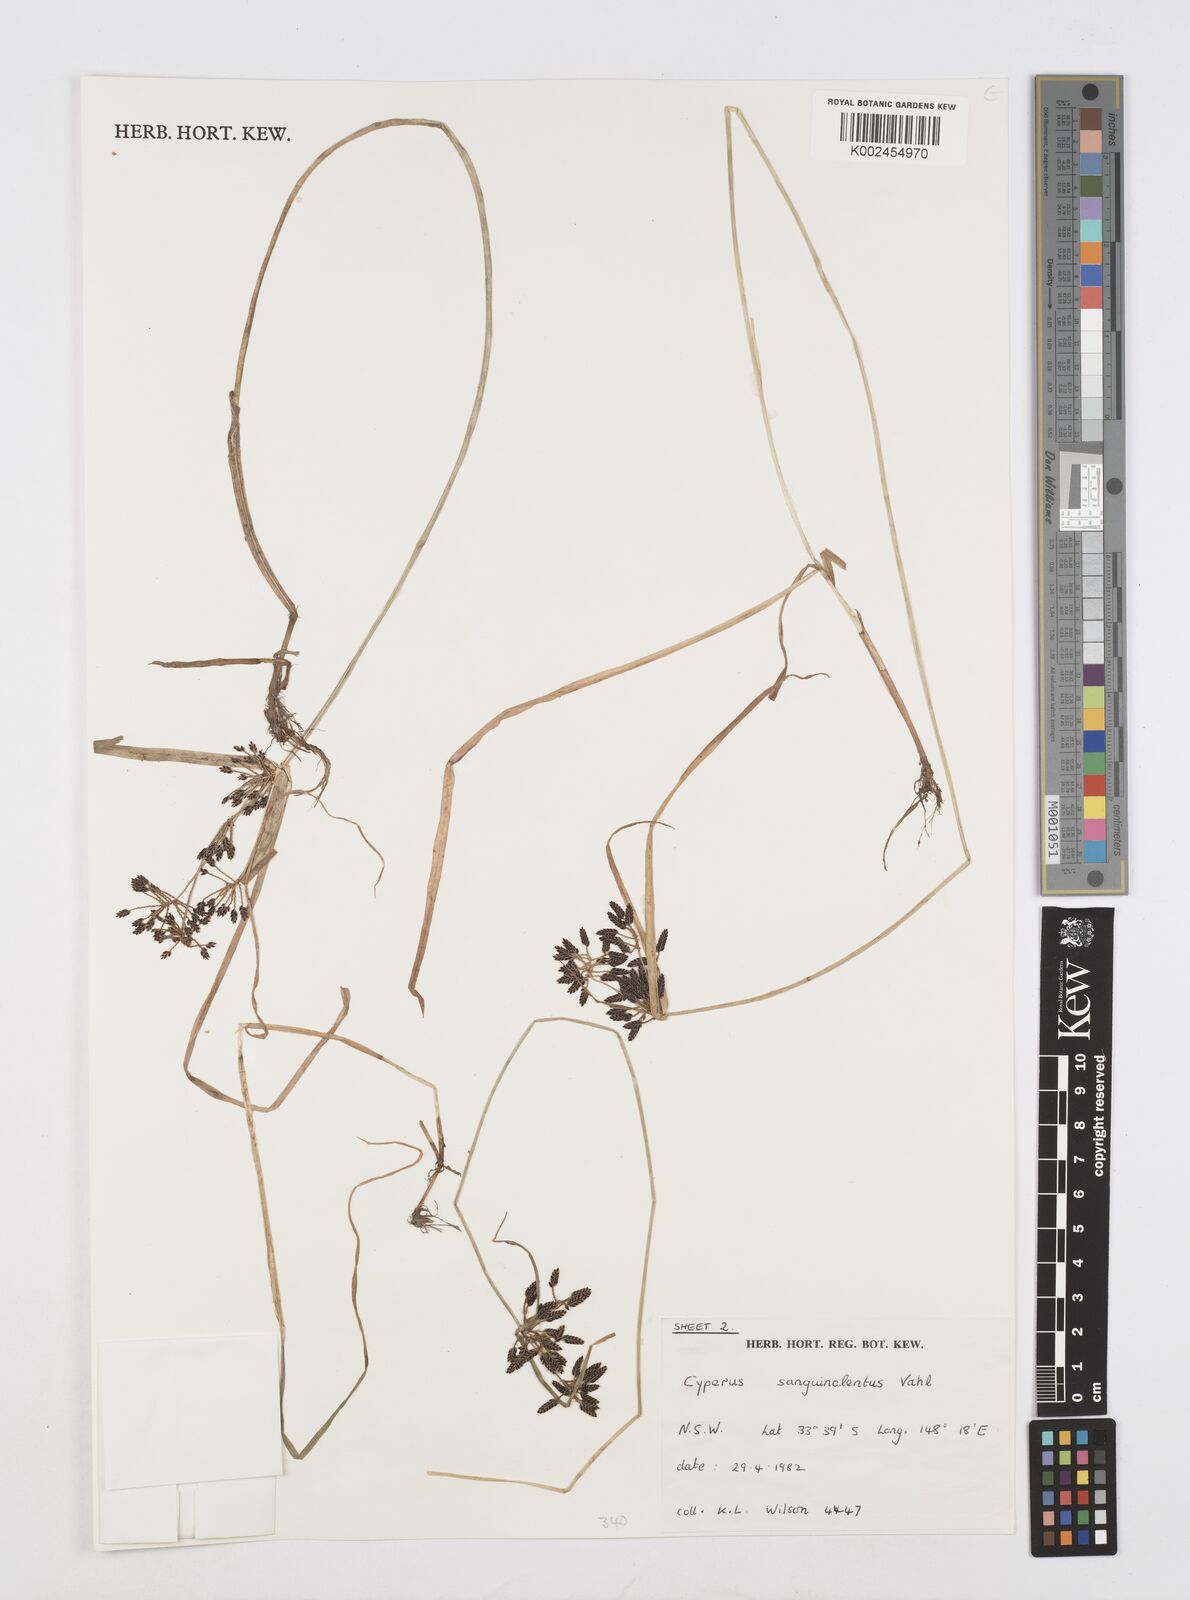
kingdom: Plantae
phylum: Tracheophyta
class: Liliopsida
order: Poales
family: Cyperaceae
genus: Cyperus
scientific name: Cyperus sanguinolentus
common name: Purpleglume flatsedge
